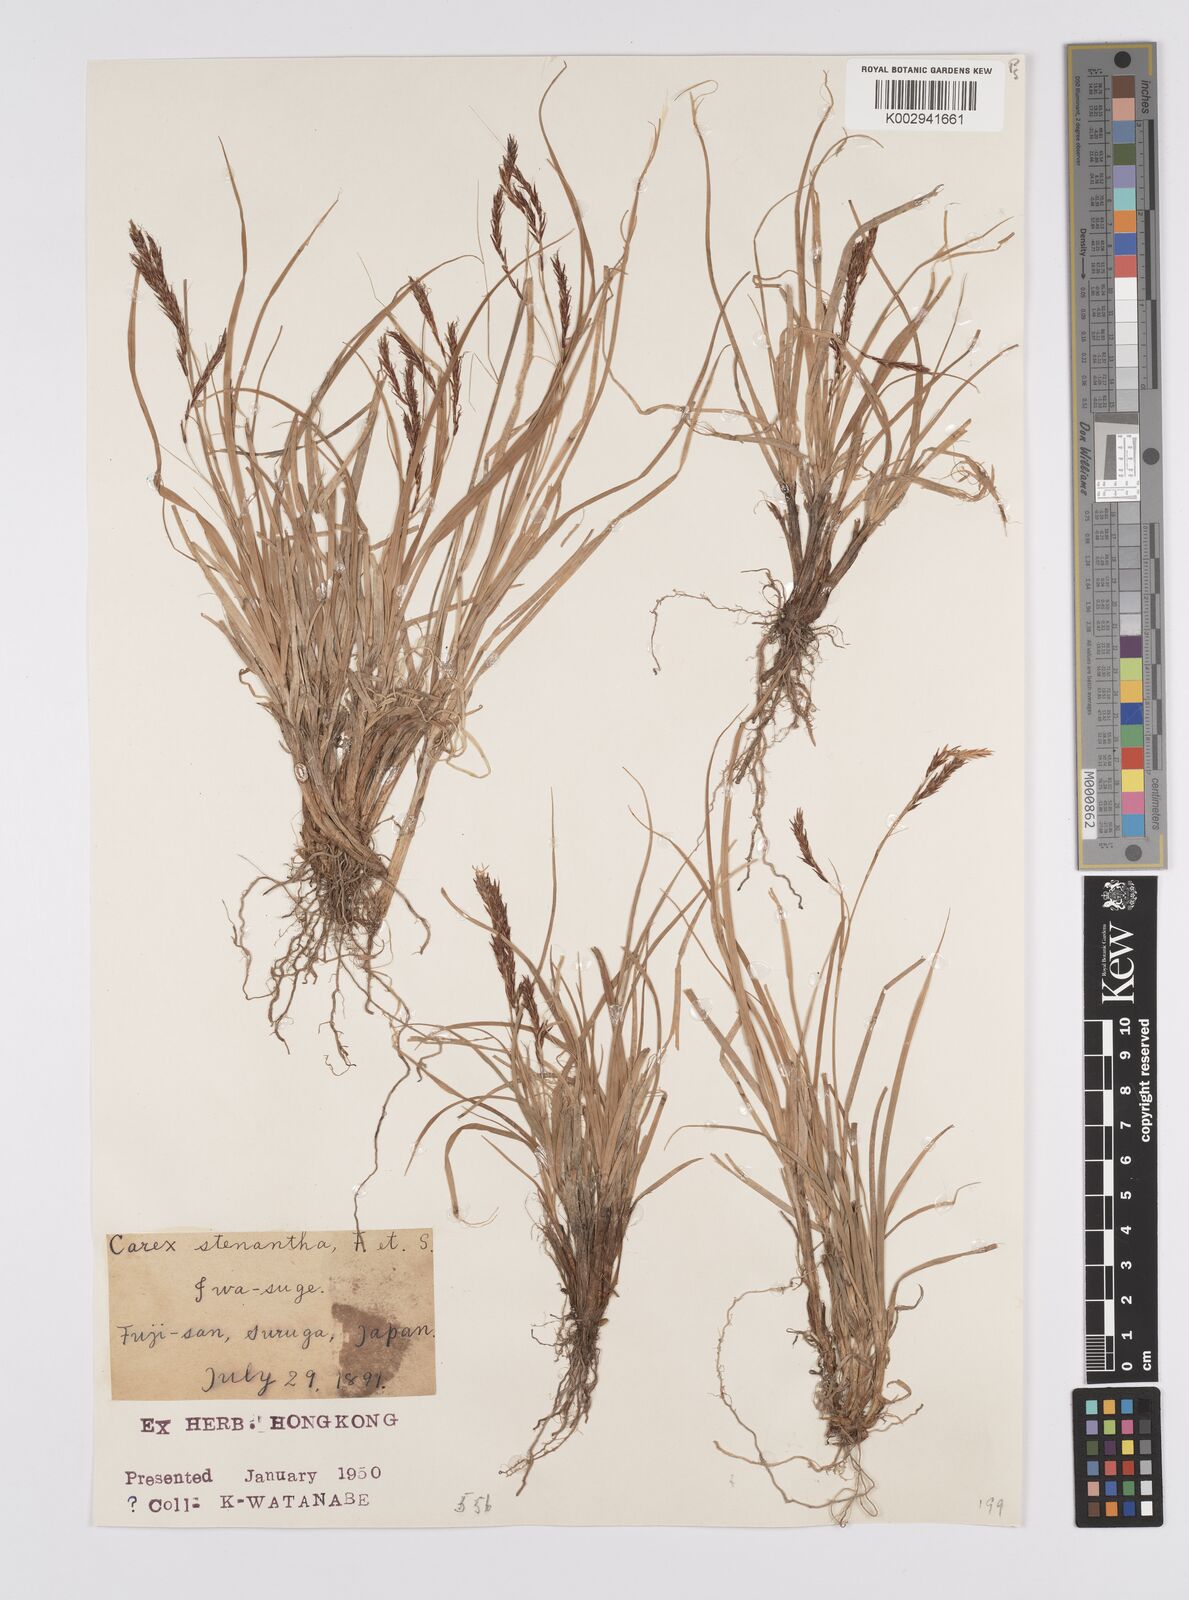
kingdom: Plantae
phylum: Tracheophyta
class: Liliopsida
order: Poales
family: Cyperaceae
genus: Carex
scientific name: Carex stenantha
